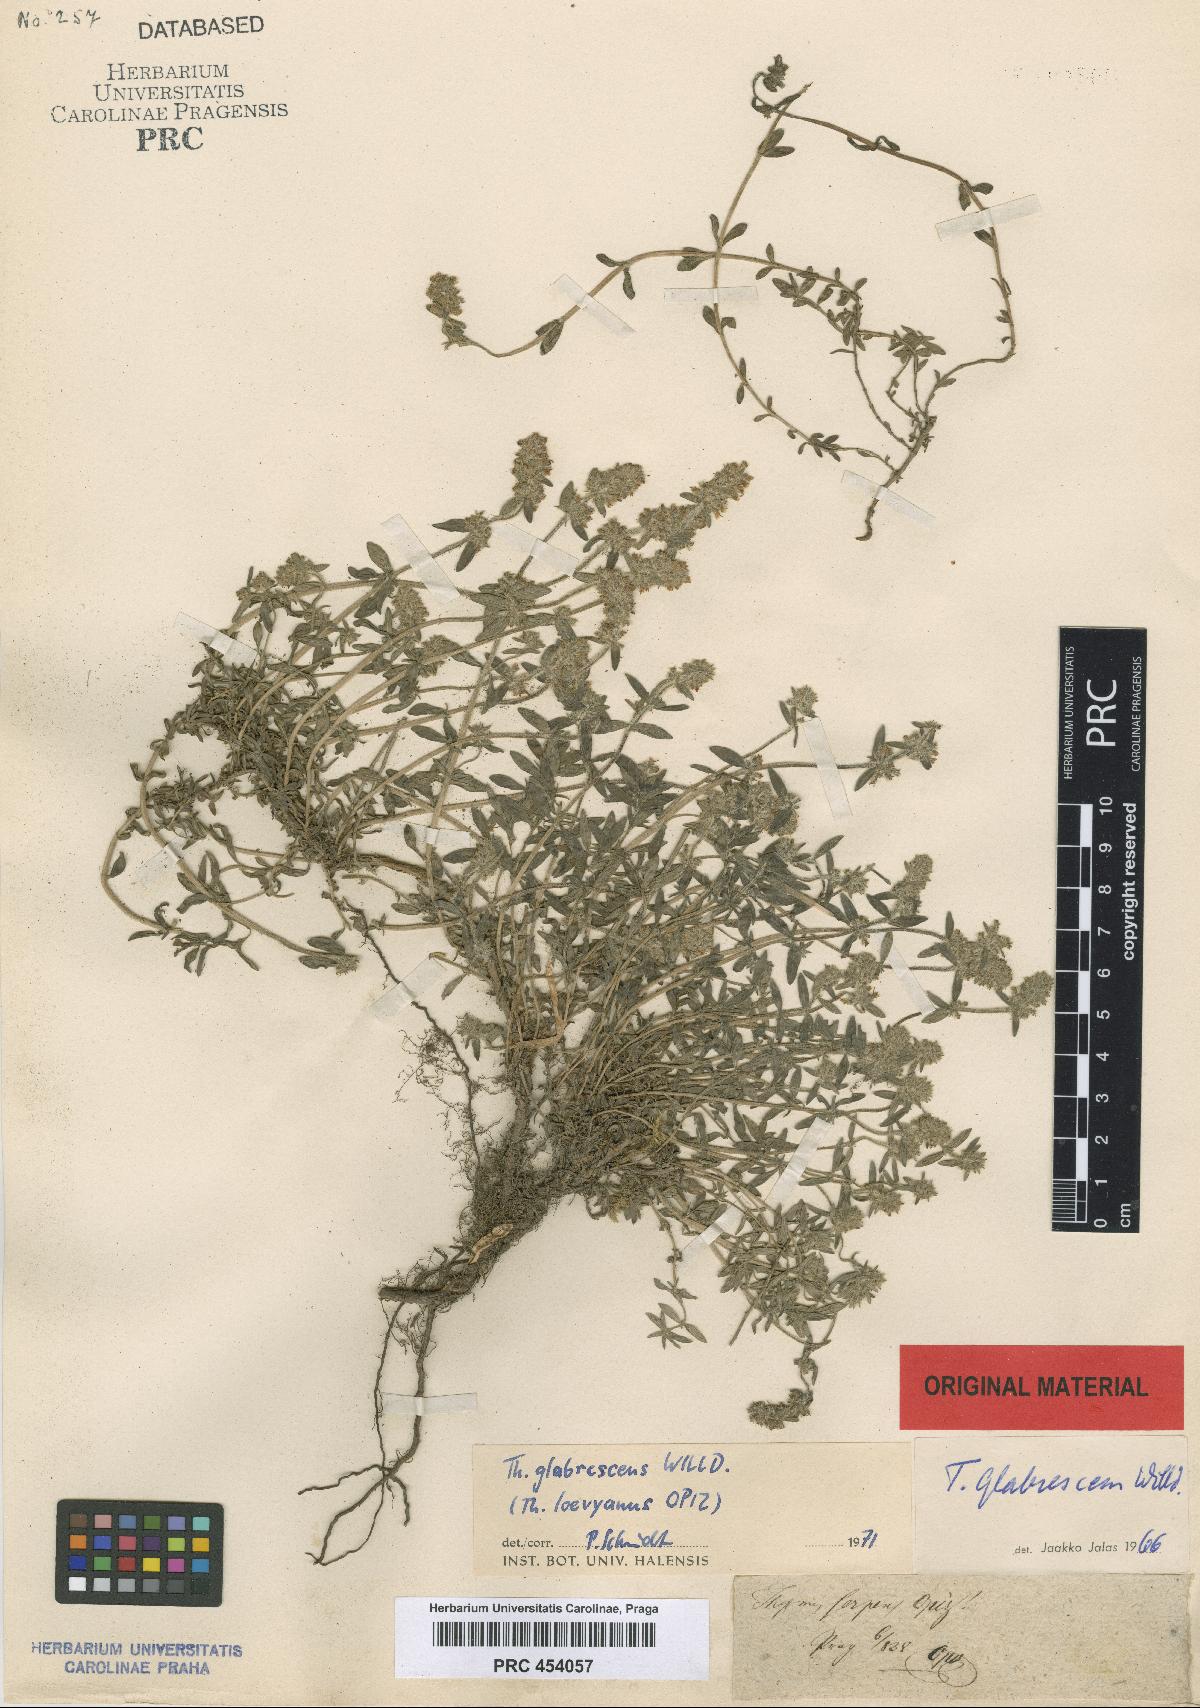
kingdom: Plantae
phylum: Tracheophyta
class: Magnoliopsida
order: Lamiales
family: Lamiaceae
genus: Thymus
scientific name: Thymus odoratissimus
